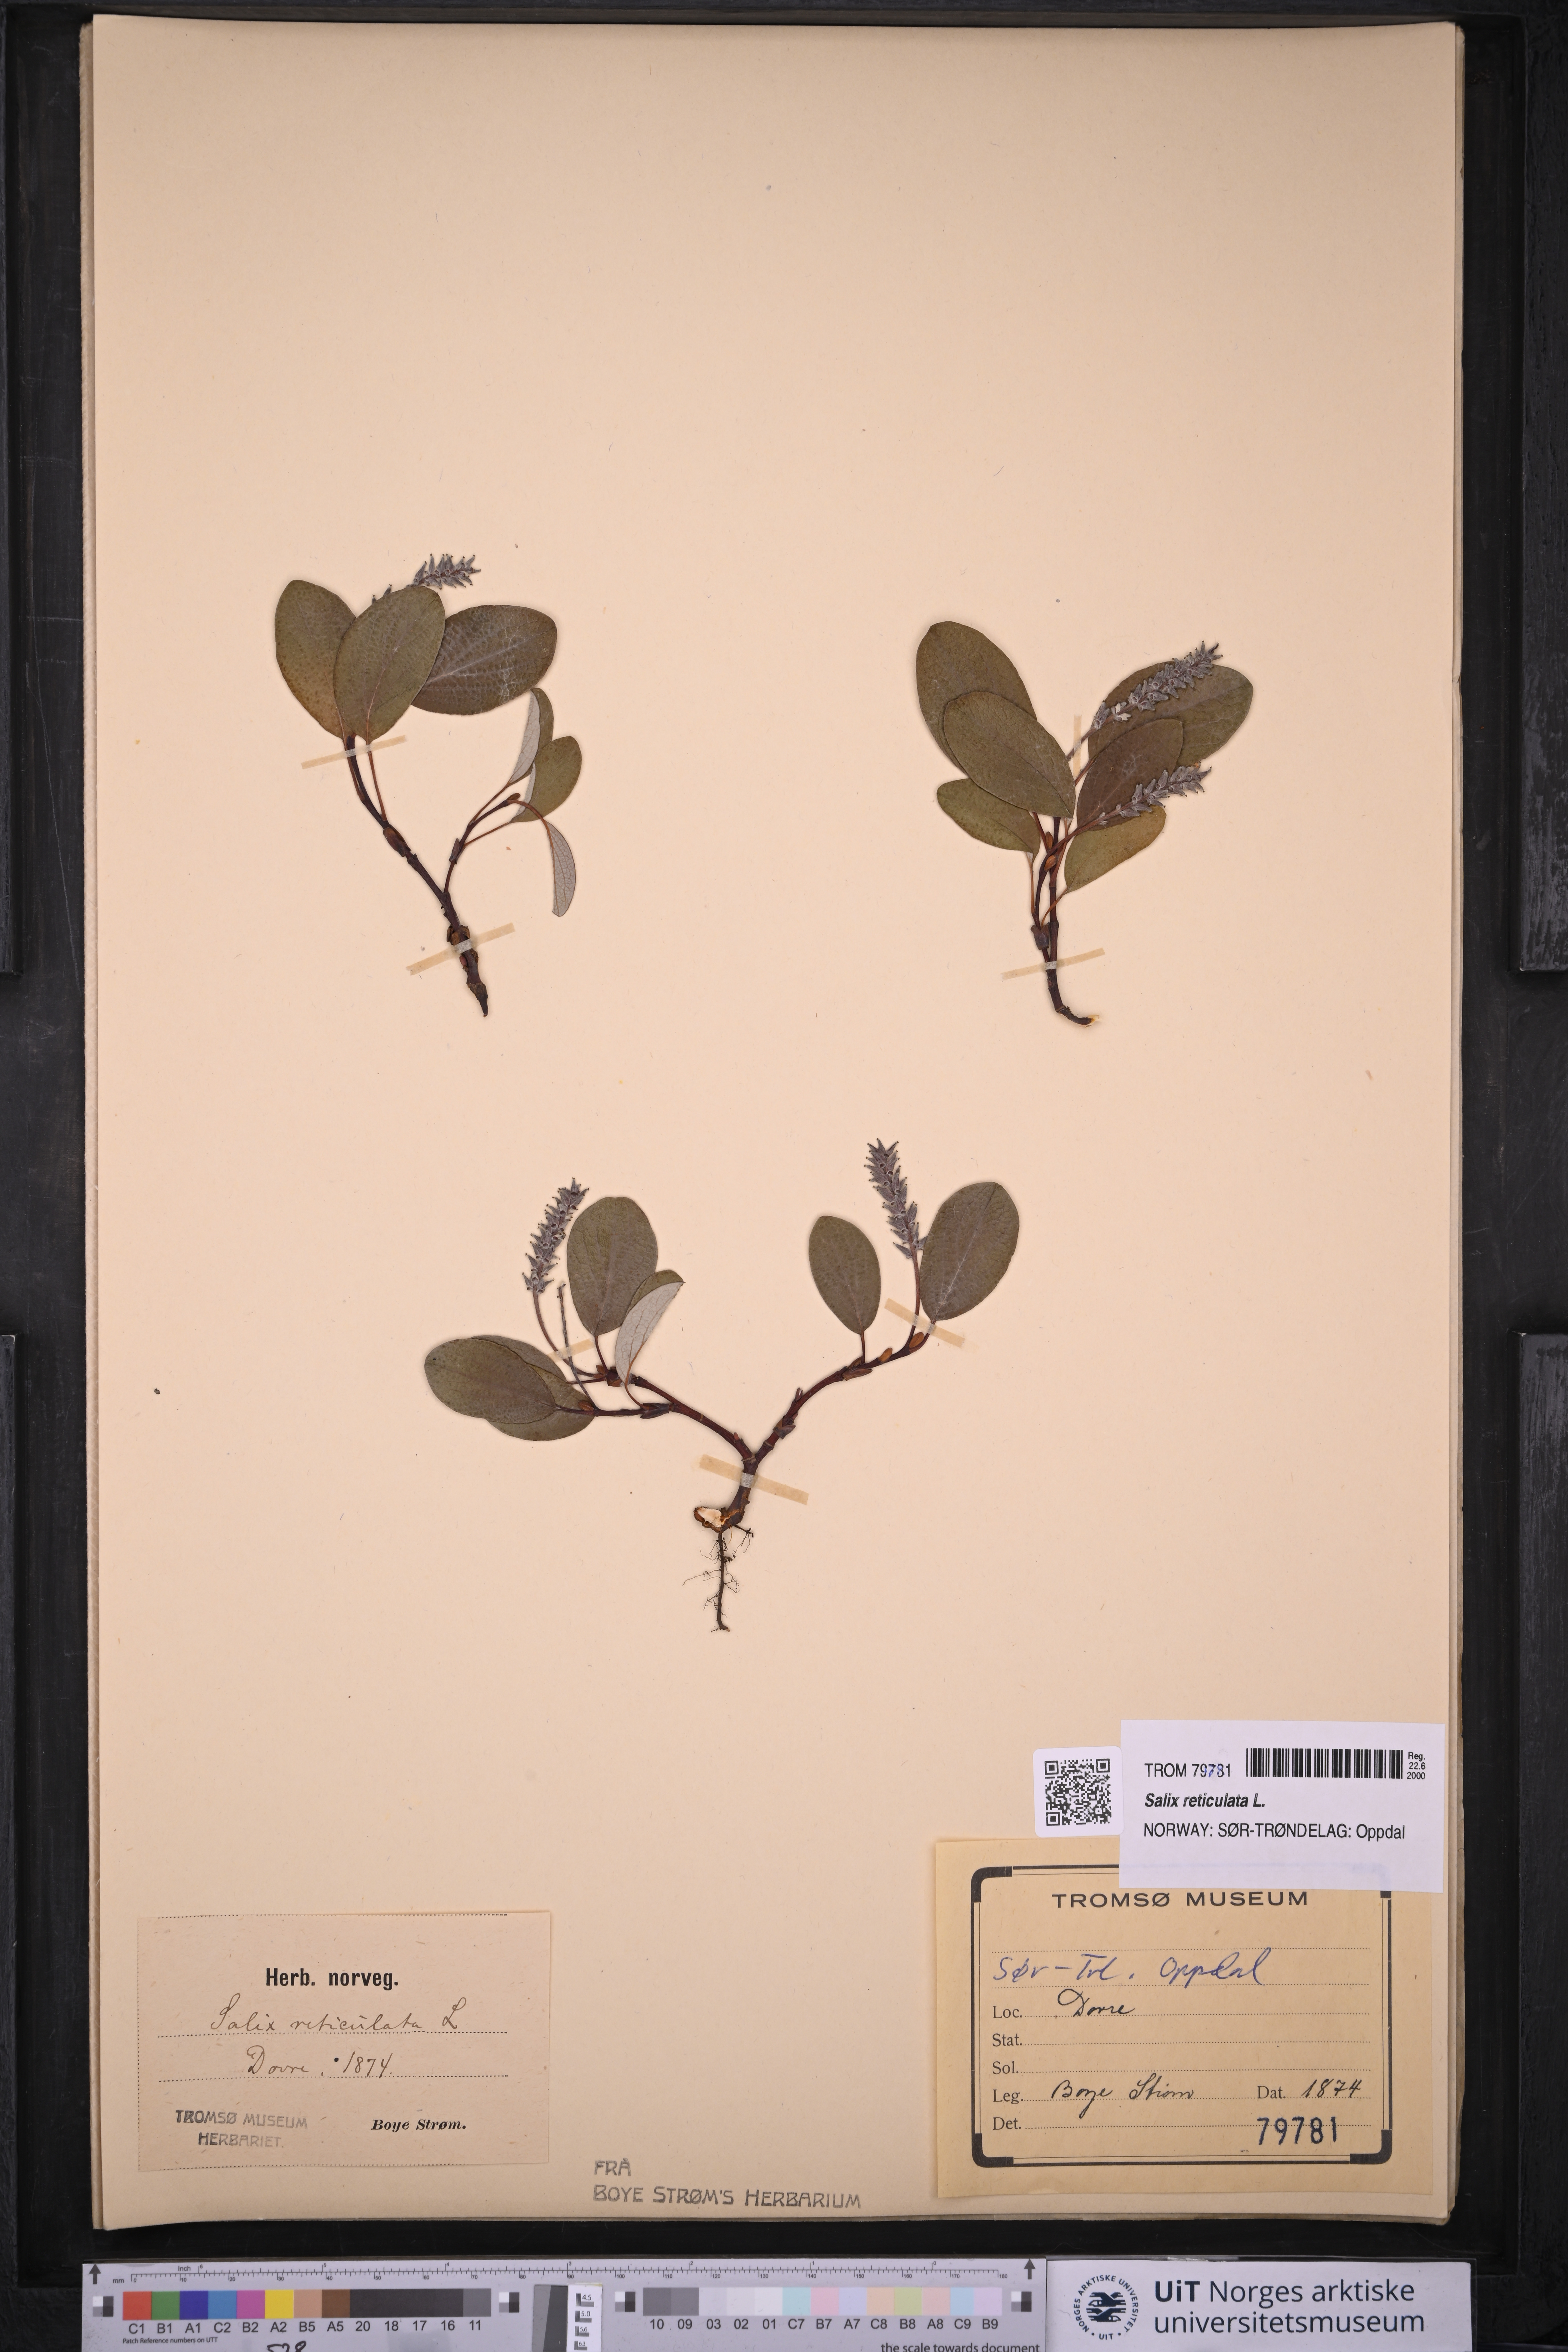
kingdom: Plantae
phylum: Tracheophyta
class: Magnoliopsida
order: Malpighiales
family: Salicaceae
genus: Salix
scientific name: Salix reticulata
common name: Net-leaved willow
